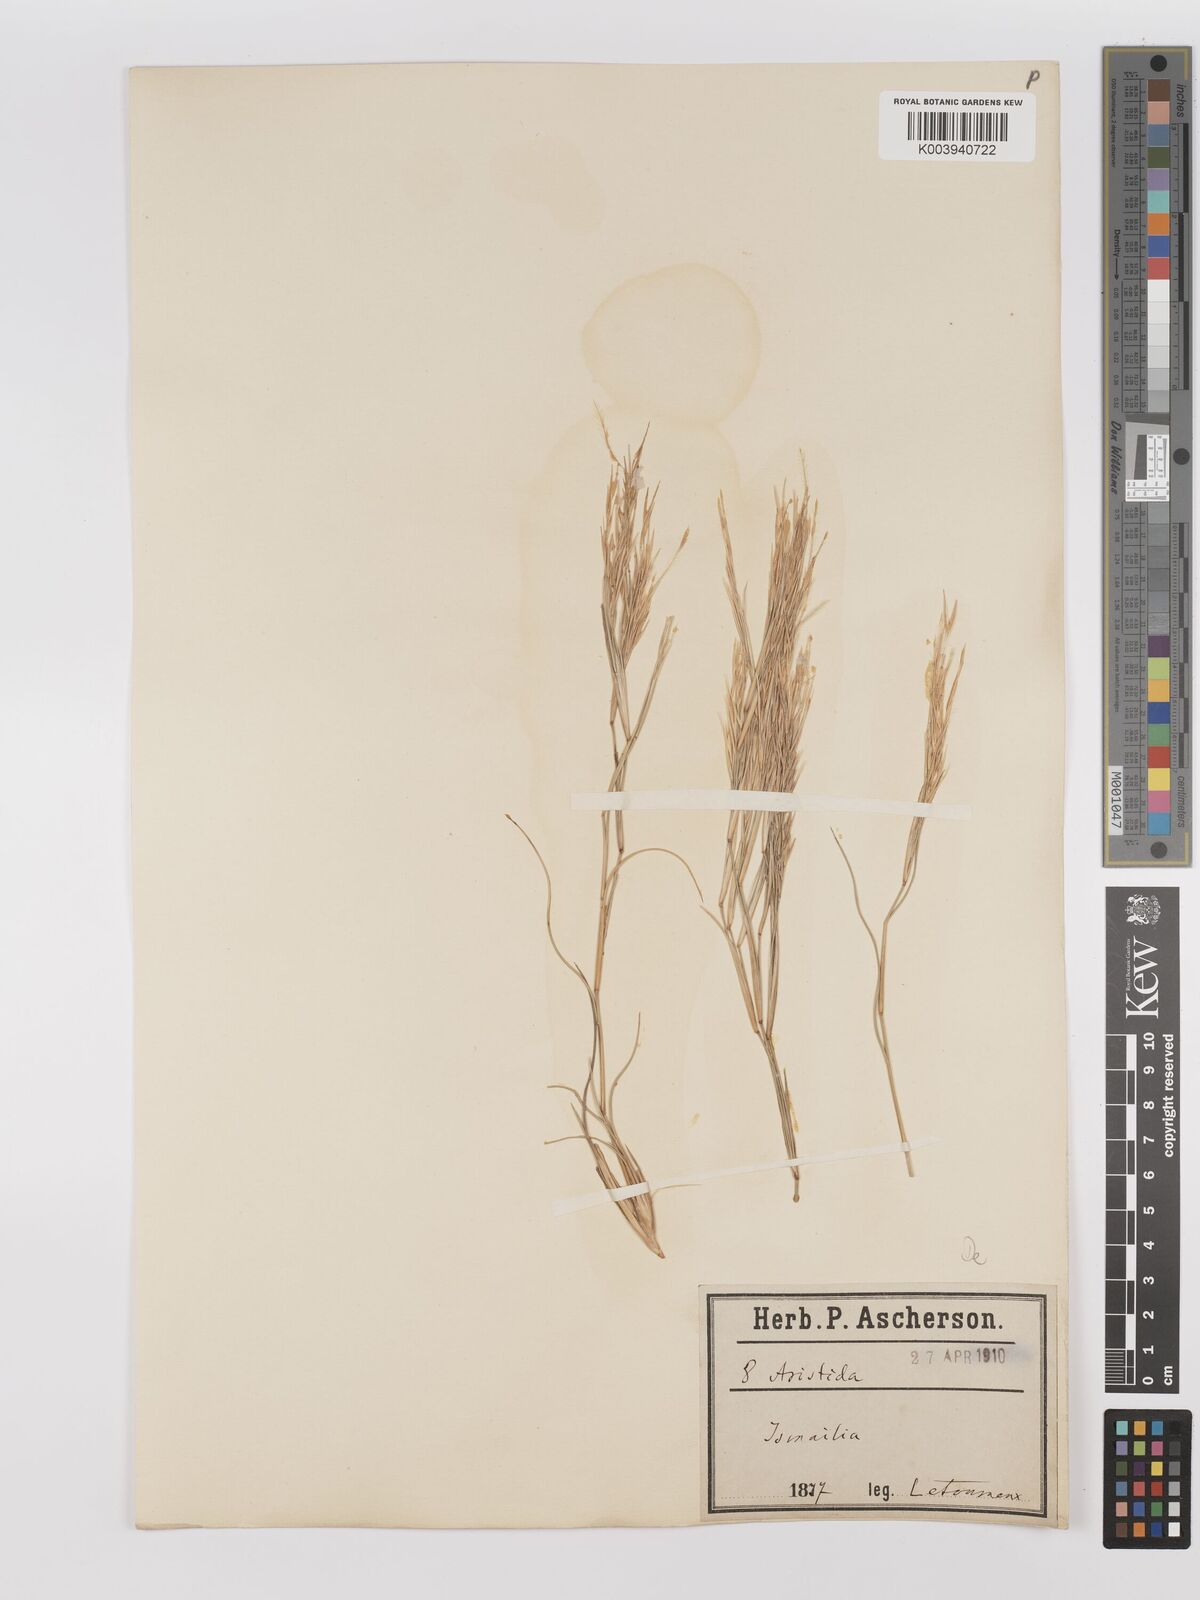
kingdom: Plantae
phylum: Tracheophyta
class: Liliopsida
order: Poales
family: Poaceae
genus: Stipagrostis
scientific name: Stipagrostis plumosa
